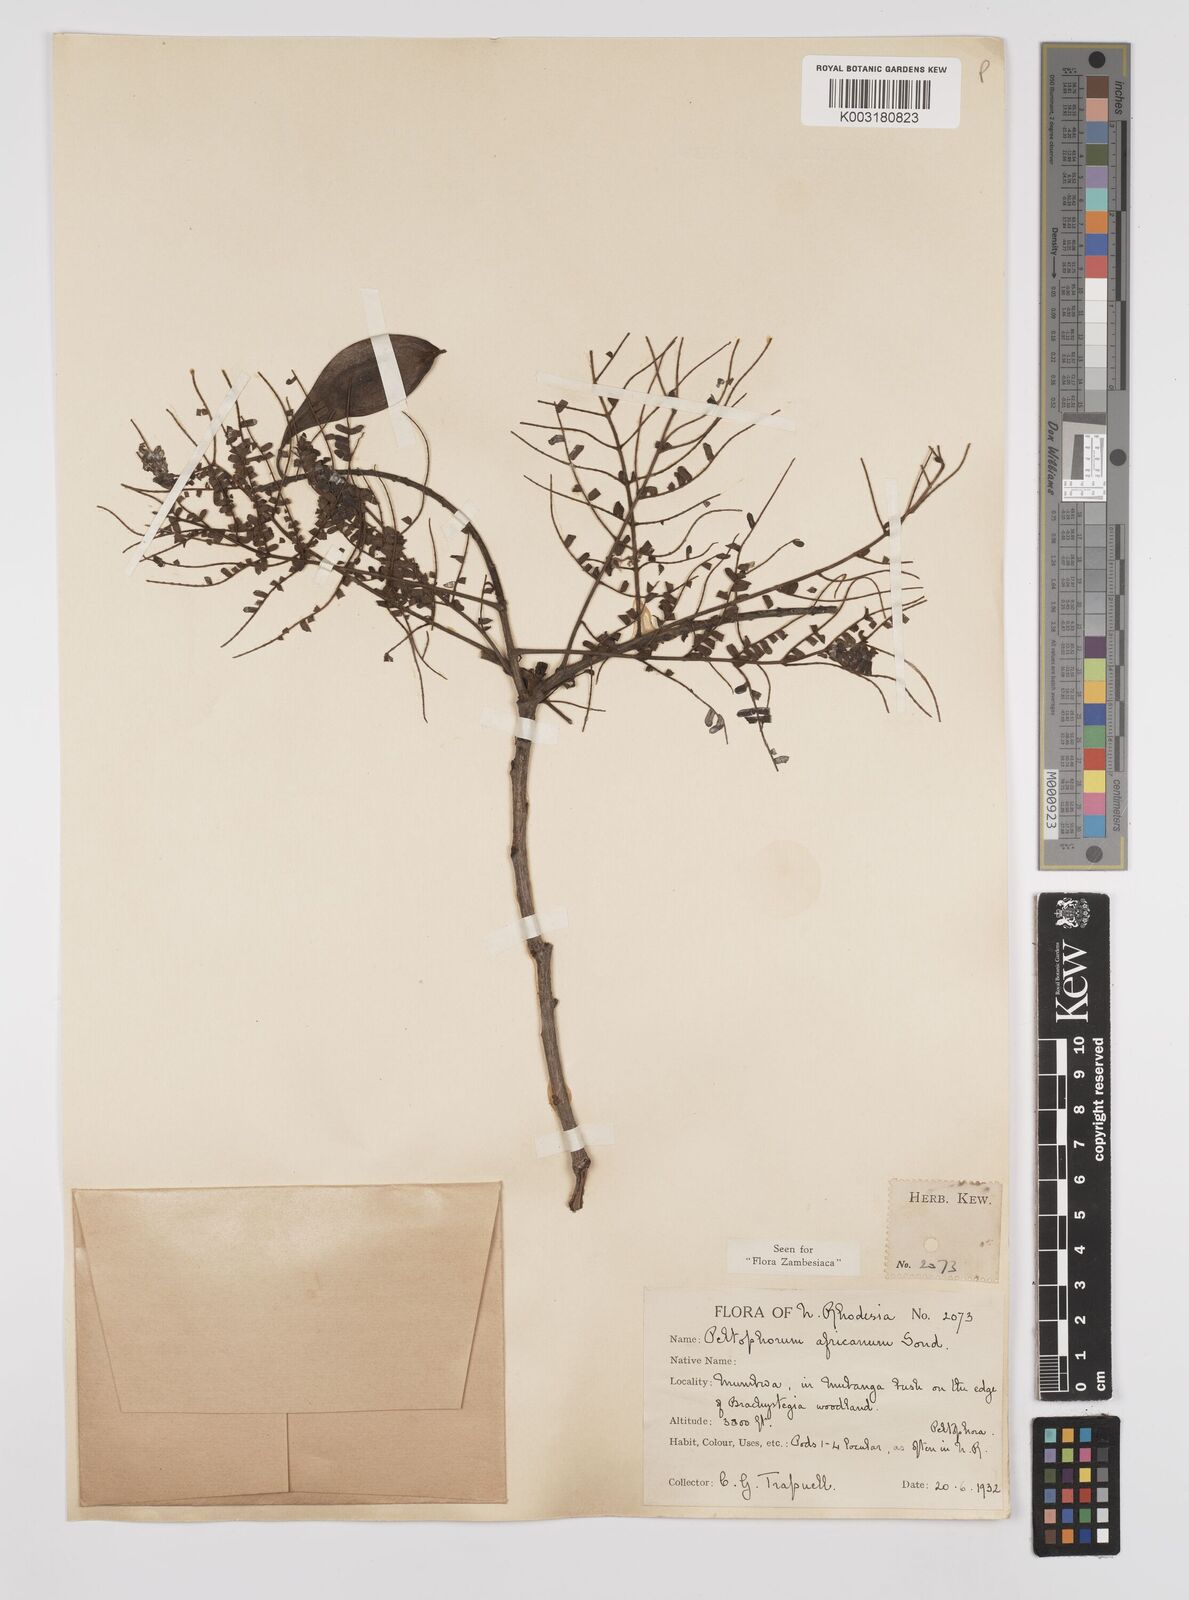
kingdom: Plantae
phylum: Tracheophyta
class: Magnoliopsida
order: Fabales
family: Fabaceae
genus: Peltophorum
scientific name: Peltophorum africanum
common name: African black wattle
